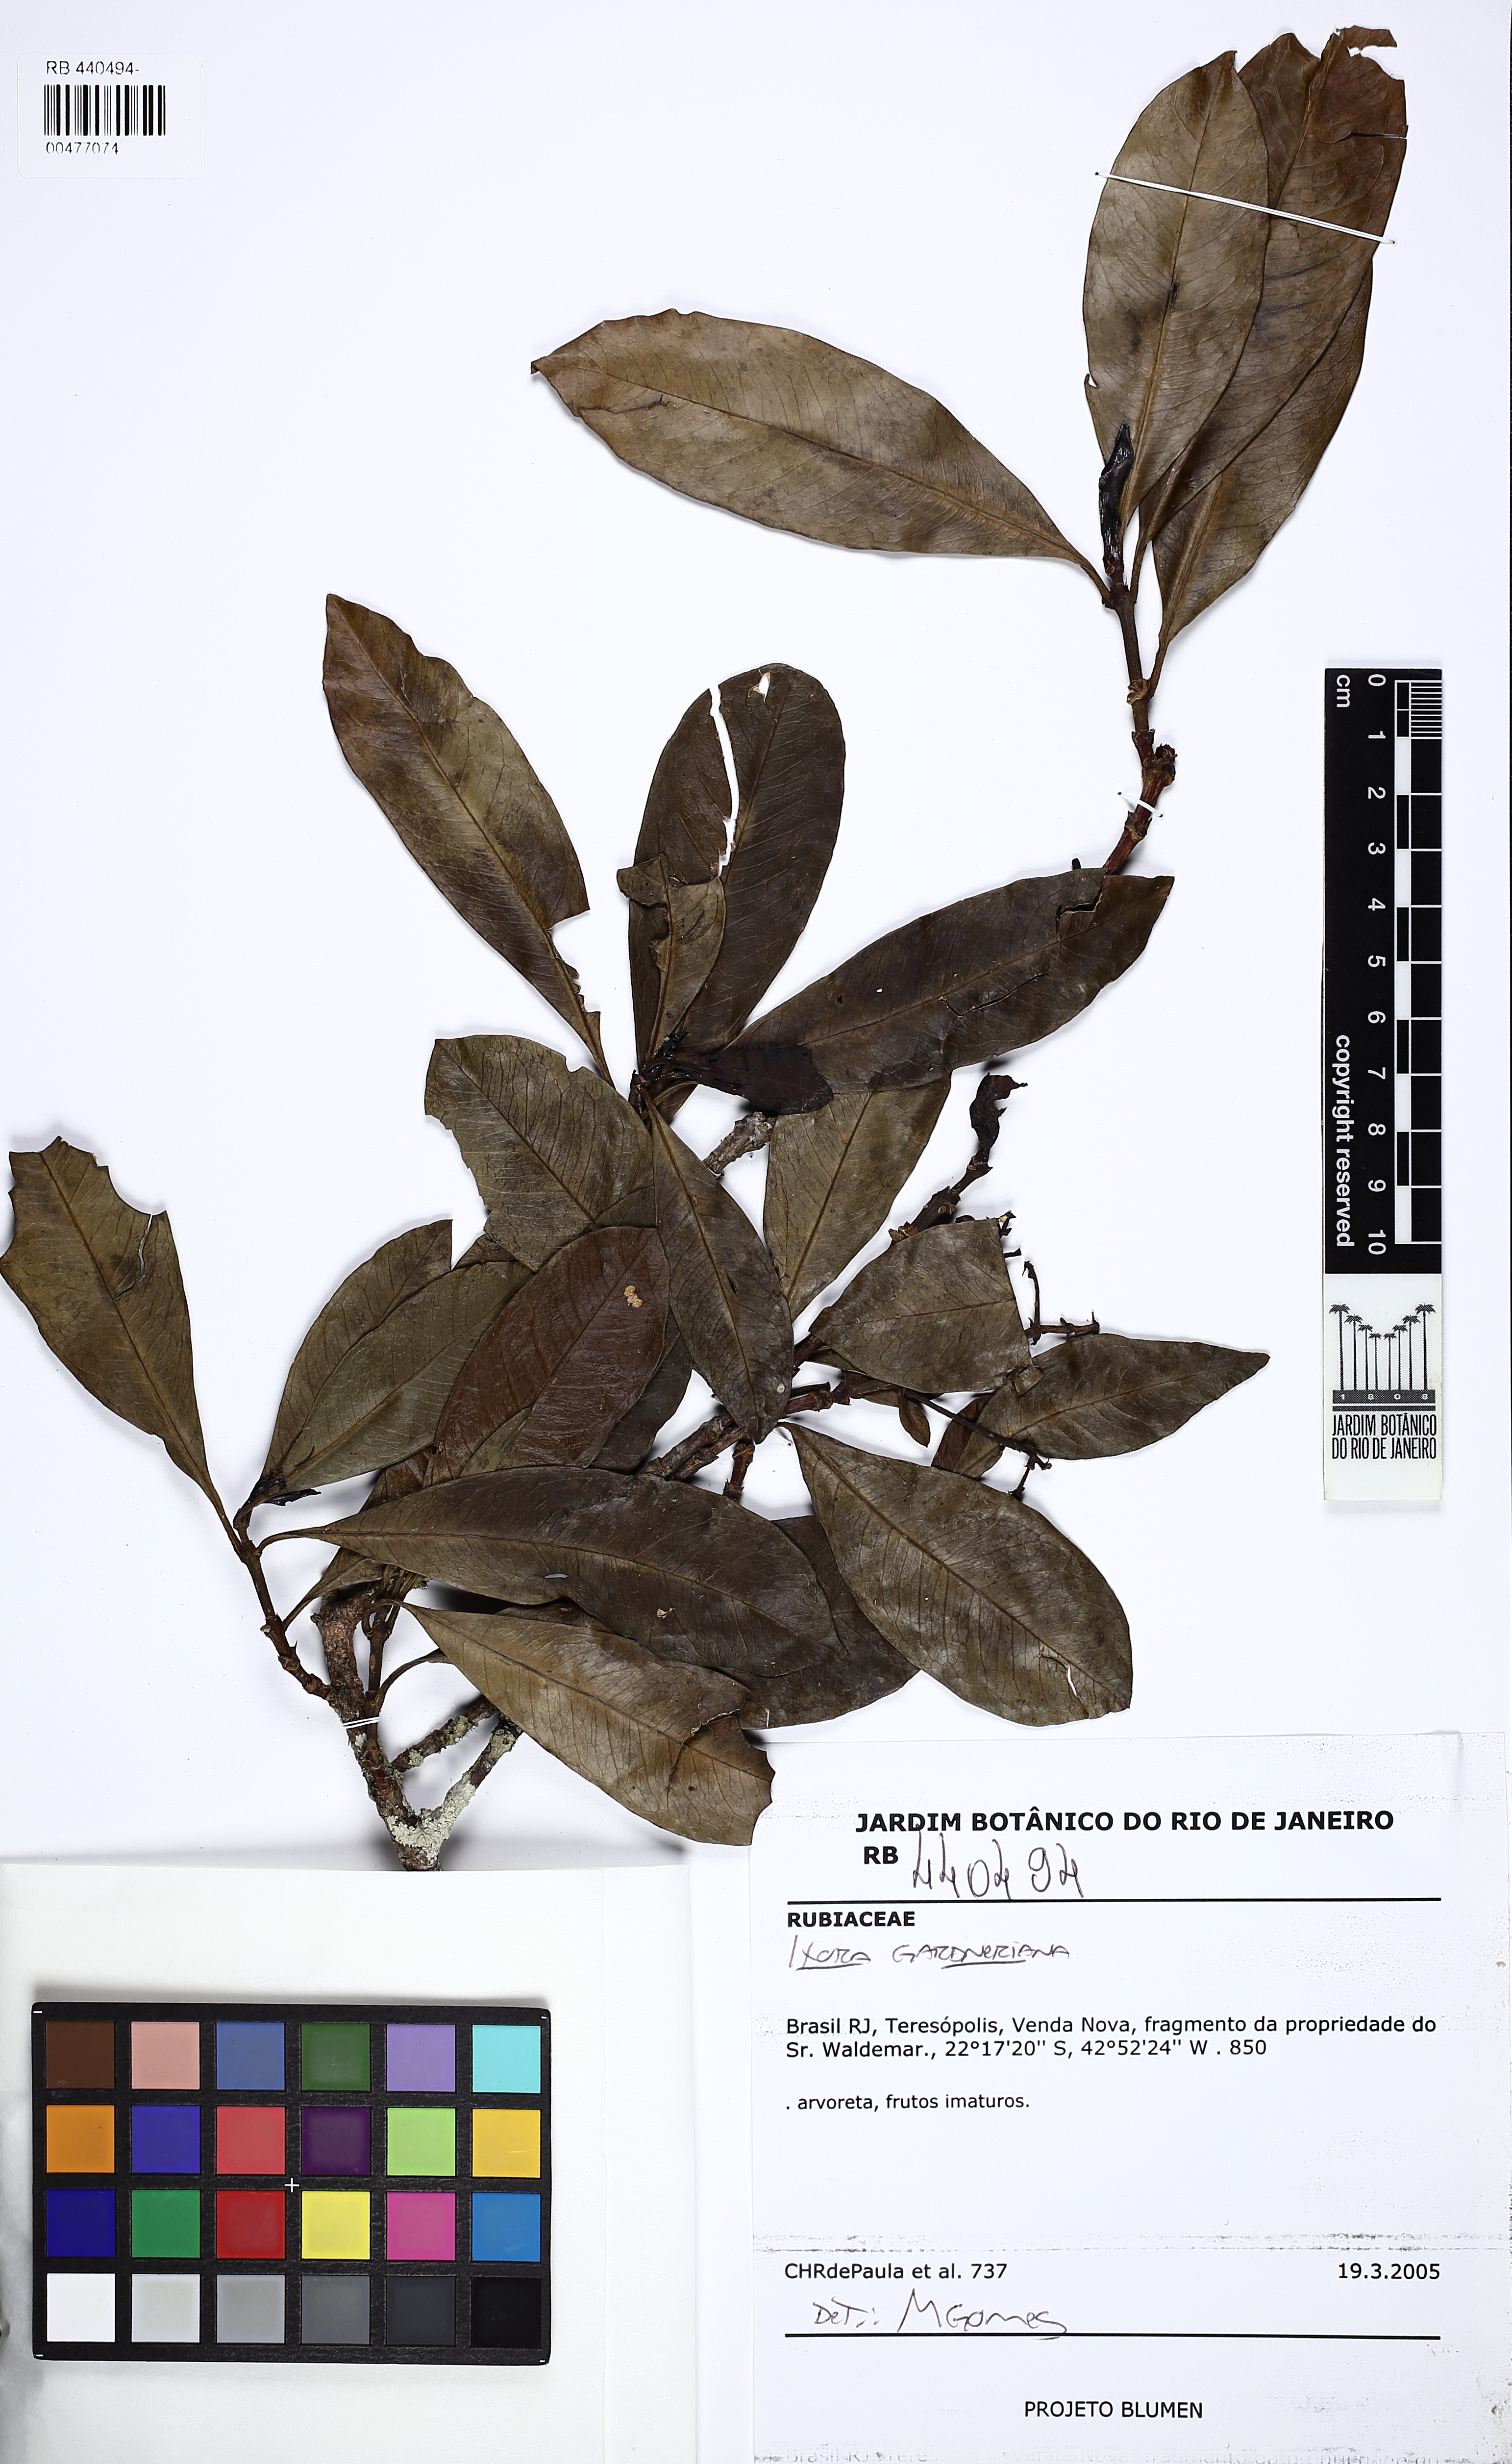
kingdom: Plantae
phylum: Tracheophyta
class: Magnoliopsida
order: Gentianales
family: Rubiaceae
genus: Ixora
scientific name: Ixora gardneriana
